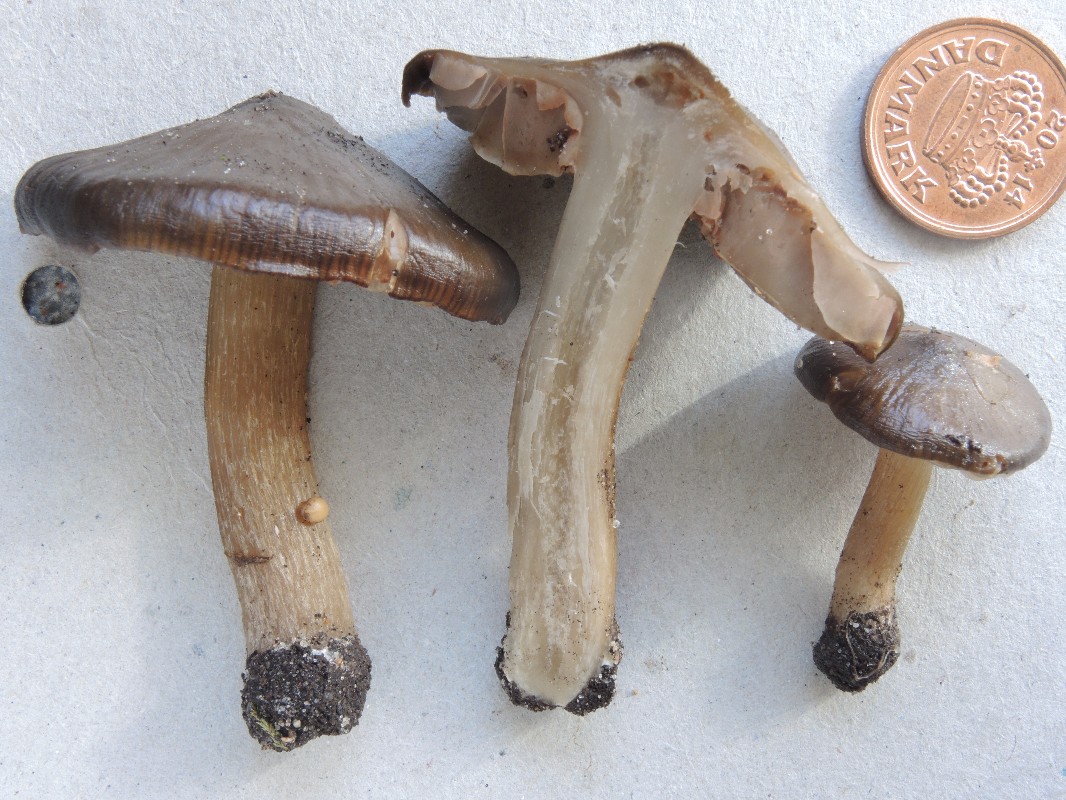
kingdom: Fungi
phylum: Basidiomycota
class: Agaricomycetes
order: Agaricales
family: Entolomataceae
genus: Entoloma
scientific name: Entoloma
